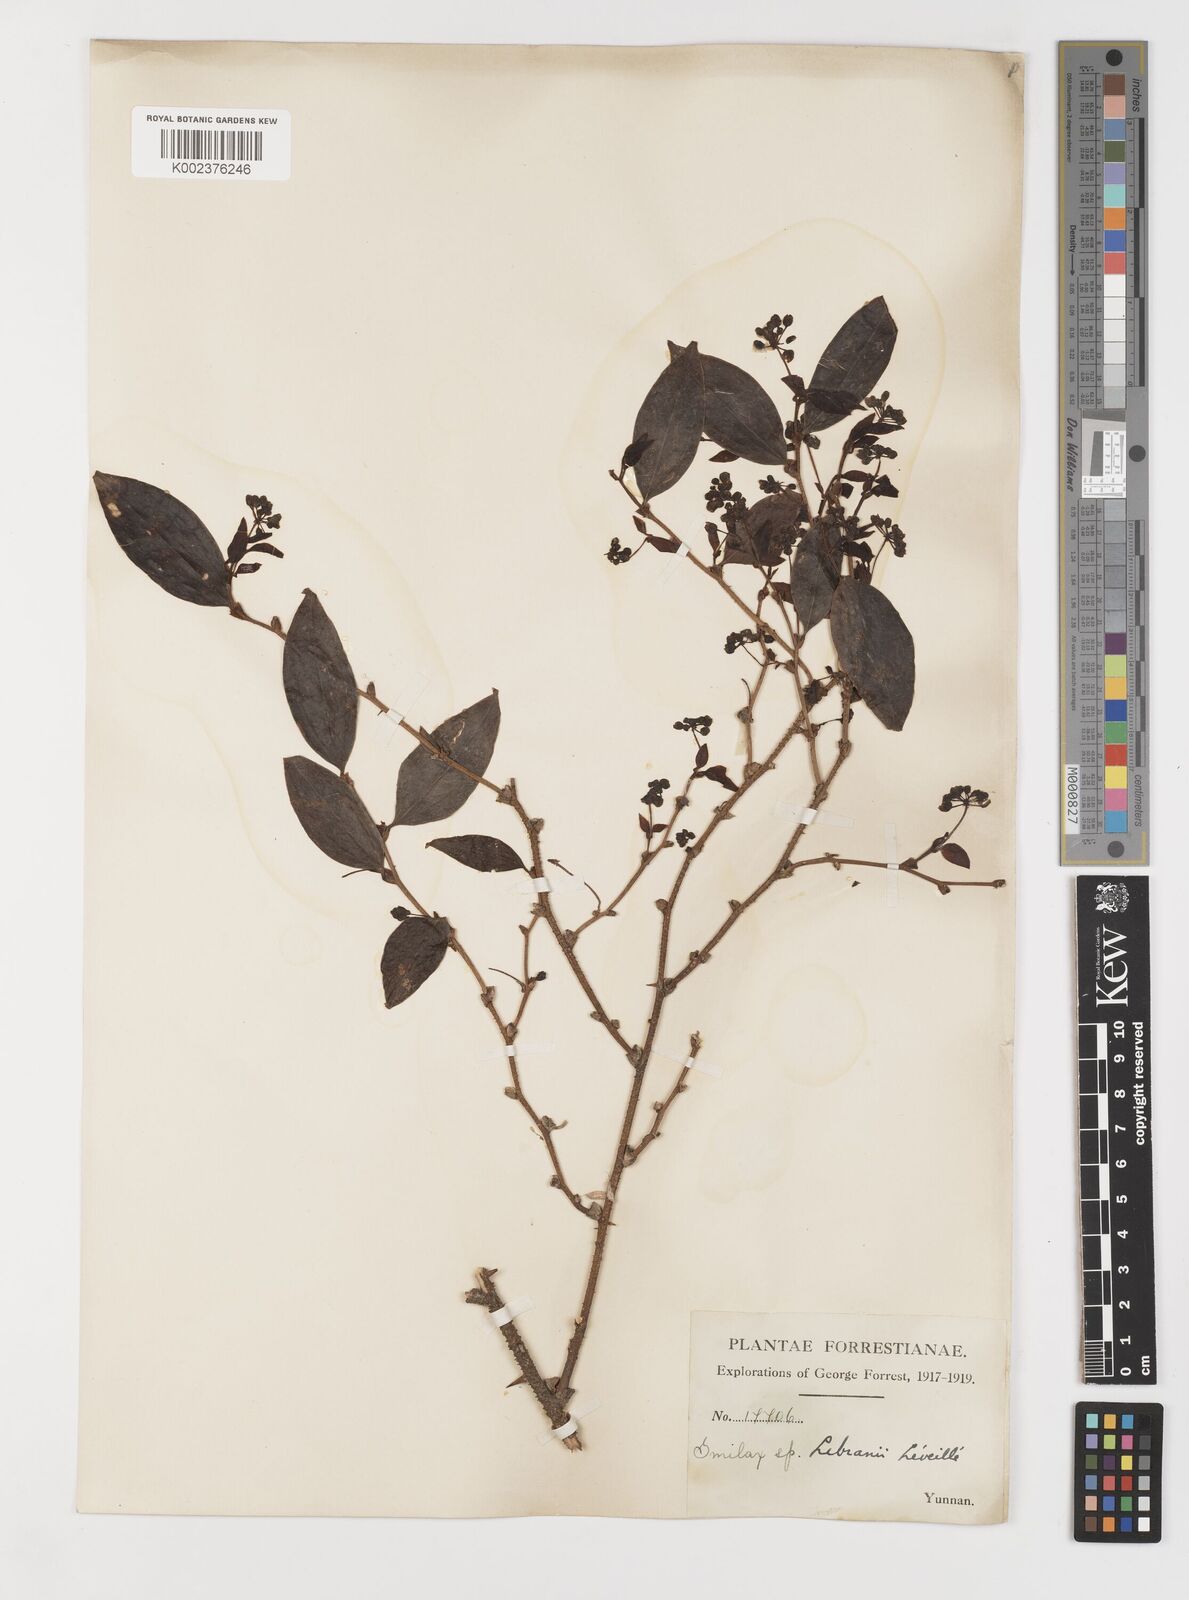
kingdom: Plantae
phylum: Tracheophyta
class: Liliopsida
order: Liliales
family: Smilacaceae
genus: Smilax
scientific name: Smilax lebrunii
